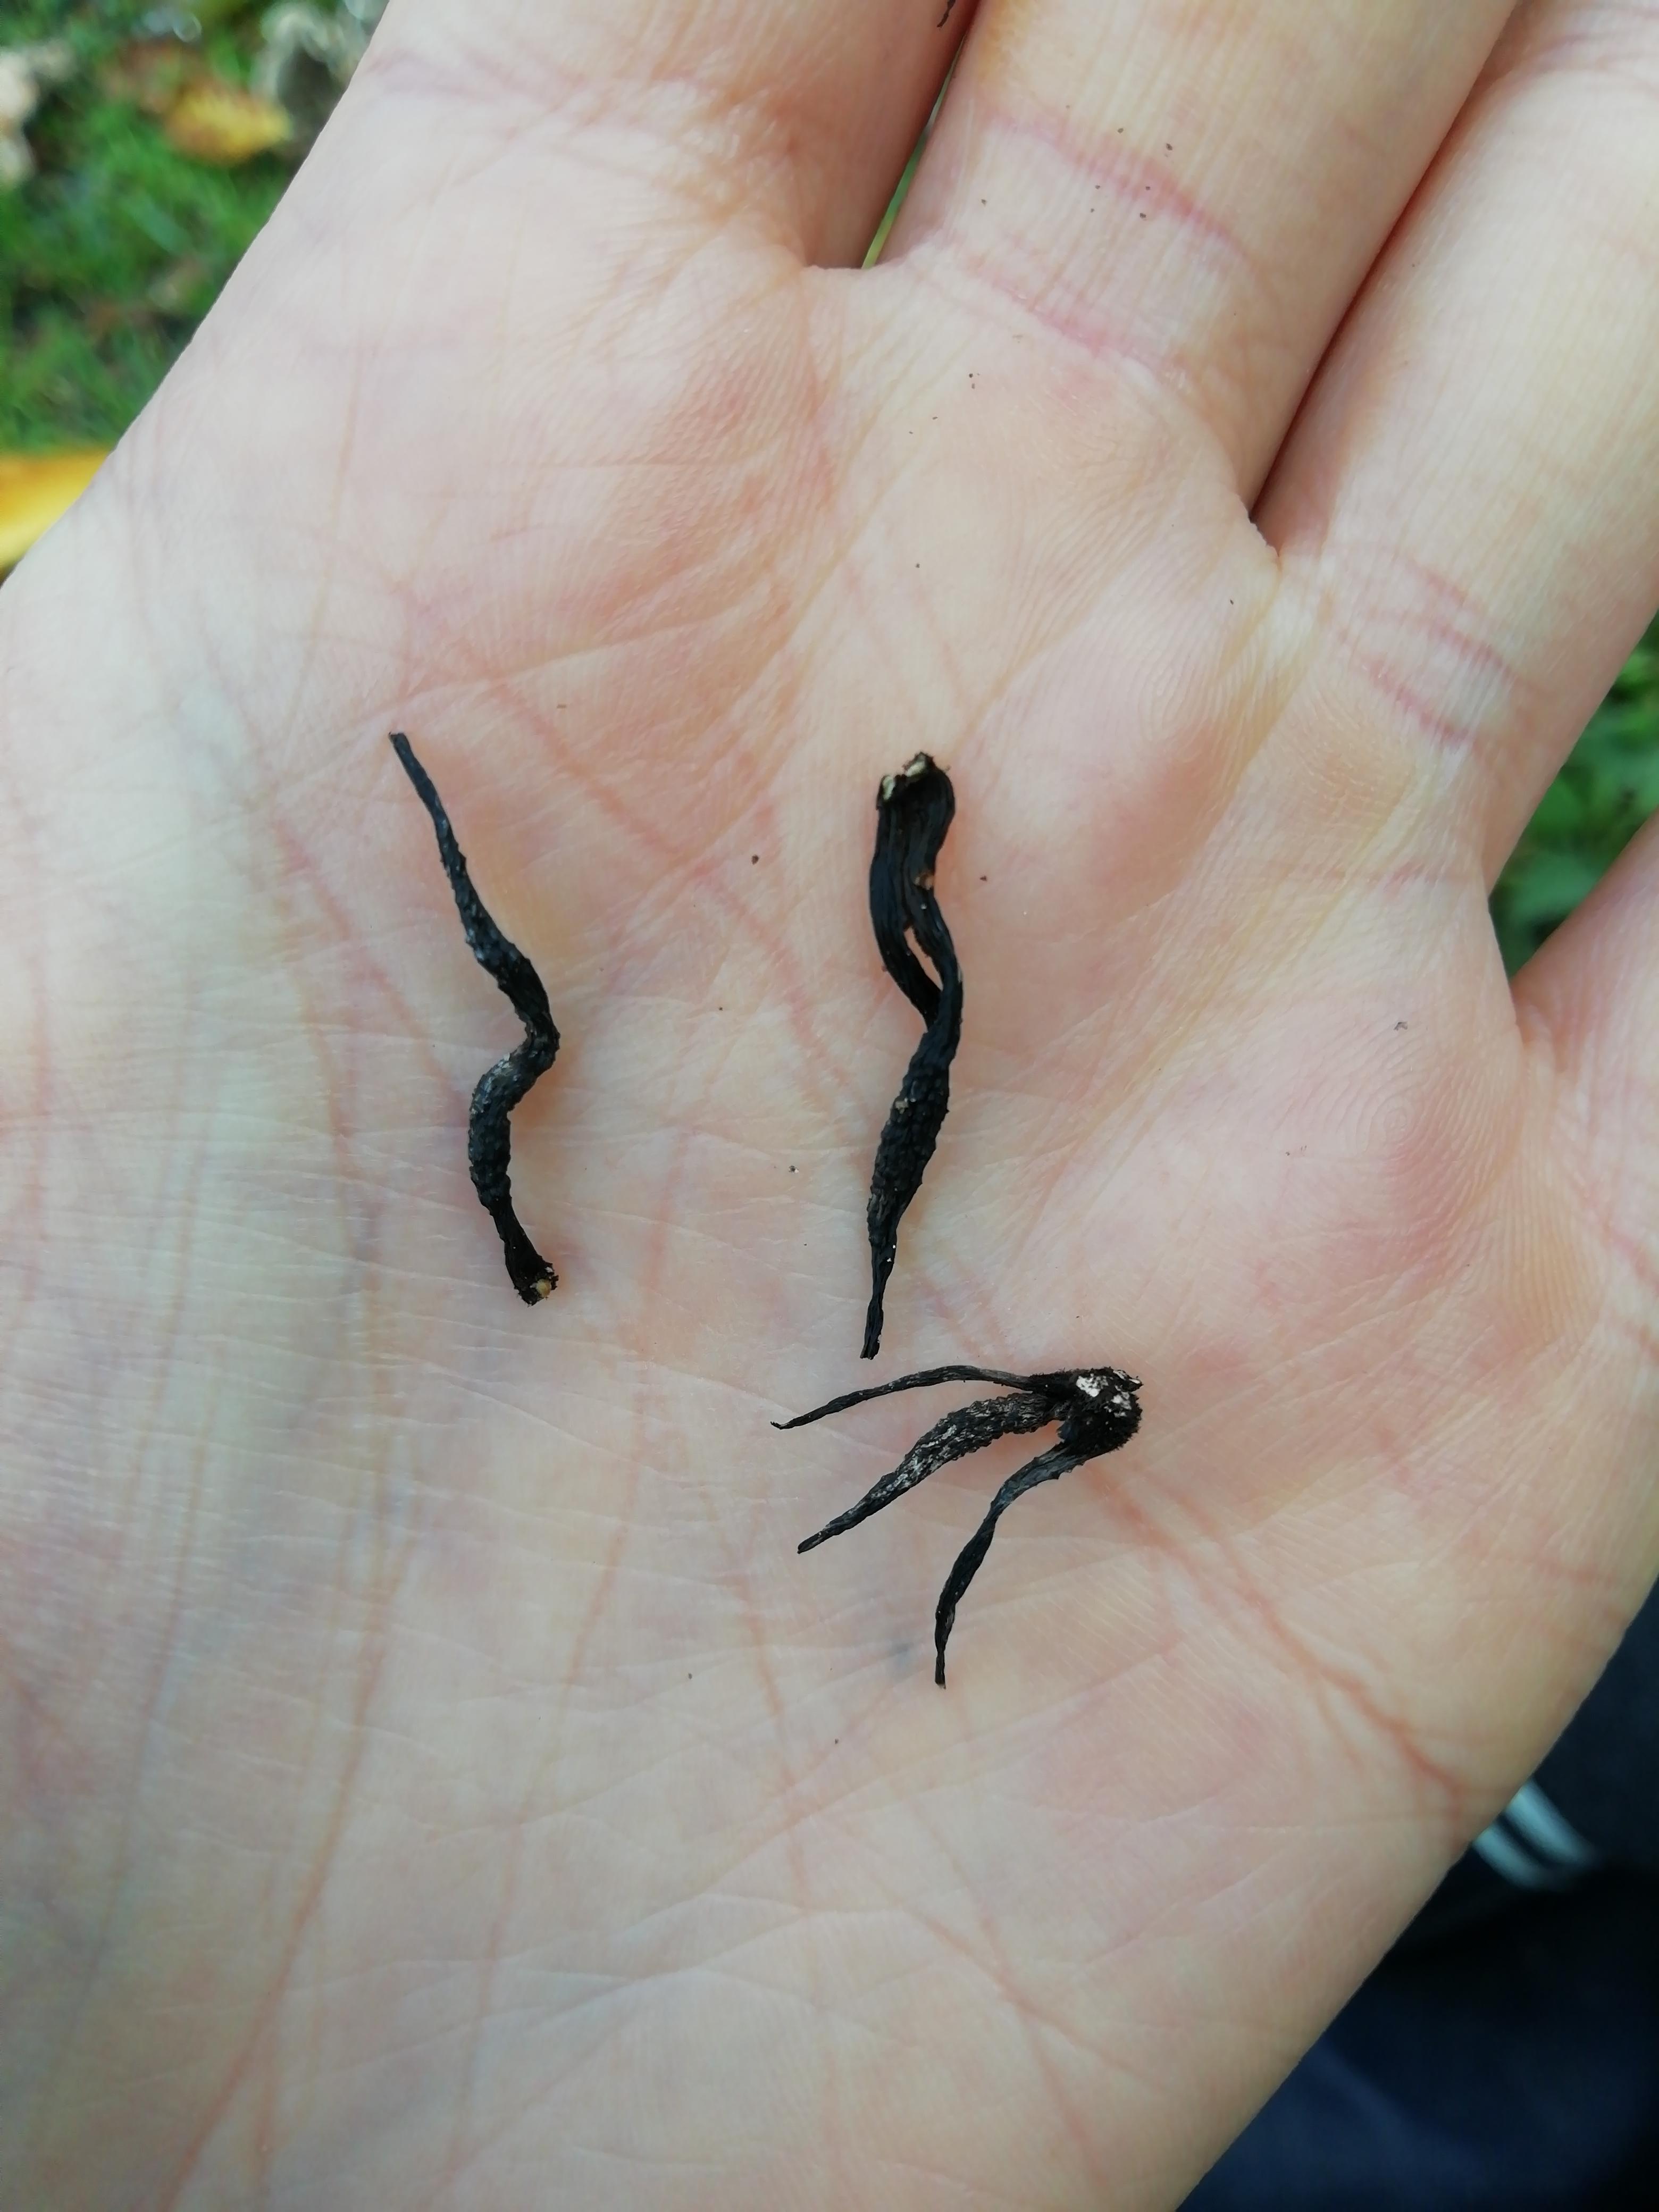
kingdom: Fungi
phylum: Ascomycota
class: Sordariomycetes
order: Xylariales
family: Xylariaceae
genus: Xylaria
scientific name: Xylaria hypoxylon
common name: grenet stødsvamp
